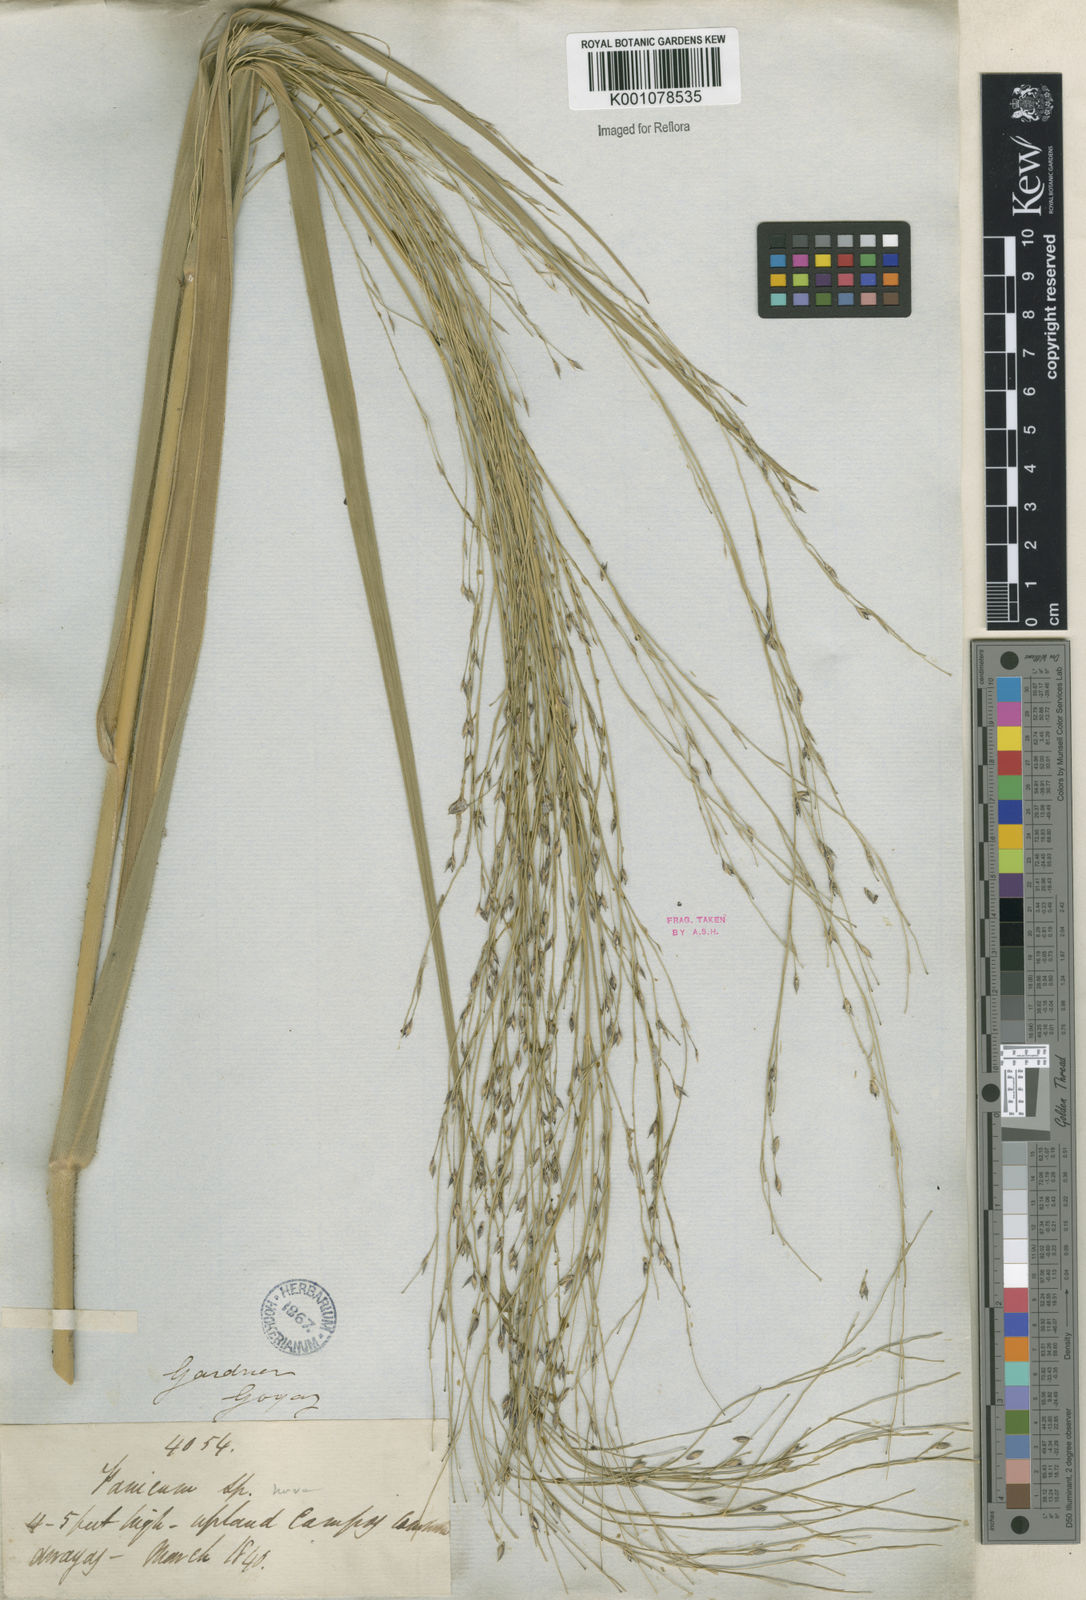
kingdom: Plantae
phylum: Tracheophyta
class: Liliopsida
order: Poales
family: Poaceae
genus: Panicum
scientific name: Panicum ligulare
